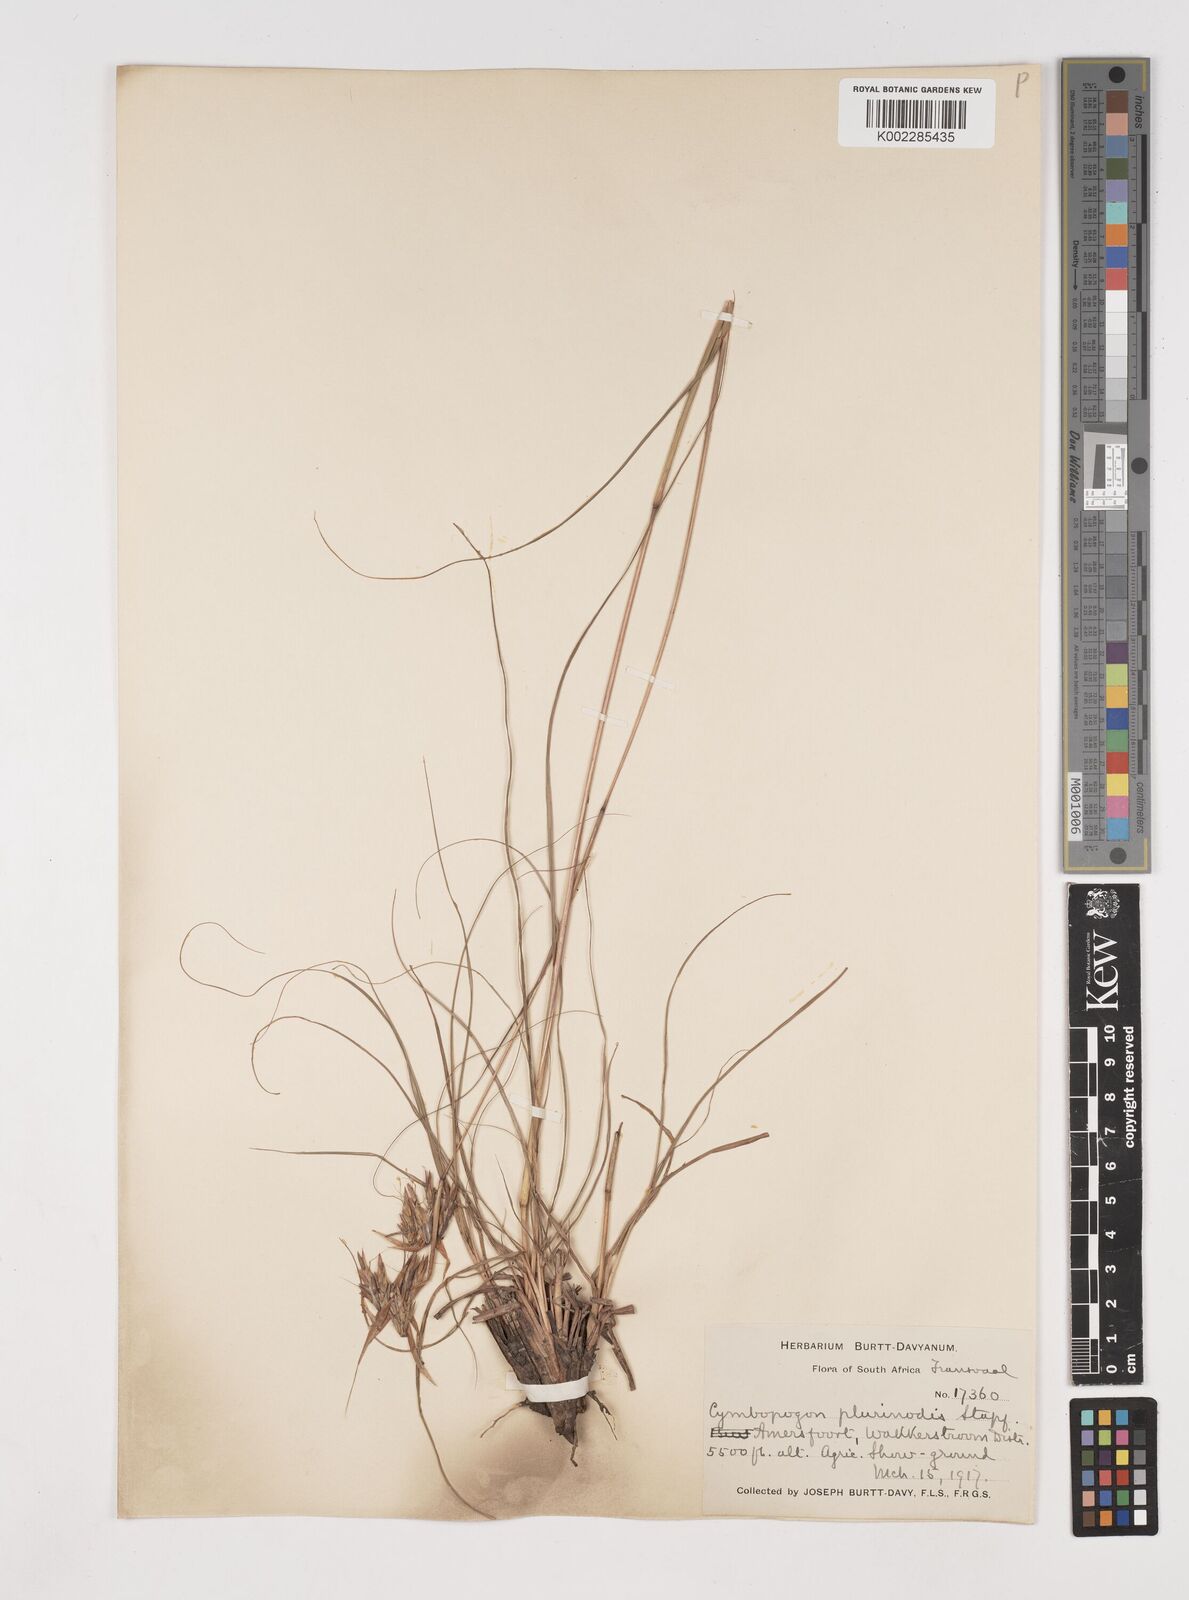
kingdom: Plantae
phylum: Tracheophyta
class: Liliopsida
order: Poales
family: Poaceae
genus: Cymbopogon
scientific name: Cymbopogon
